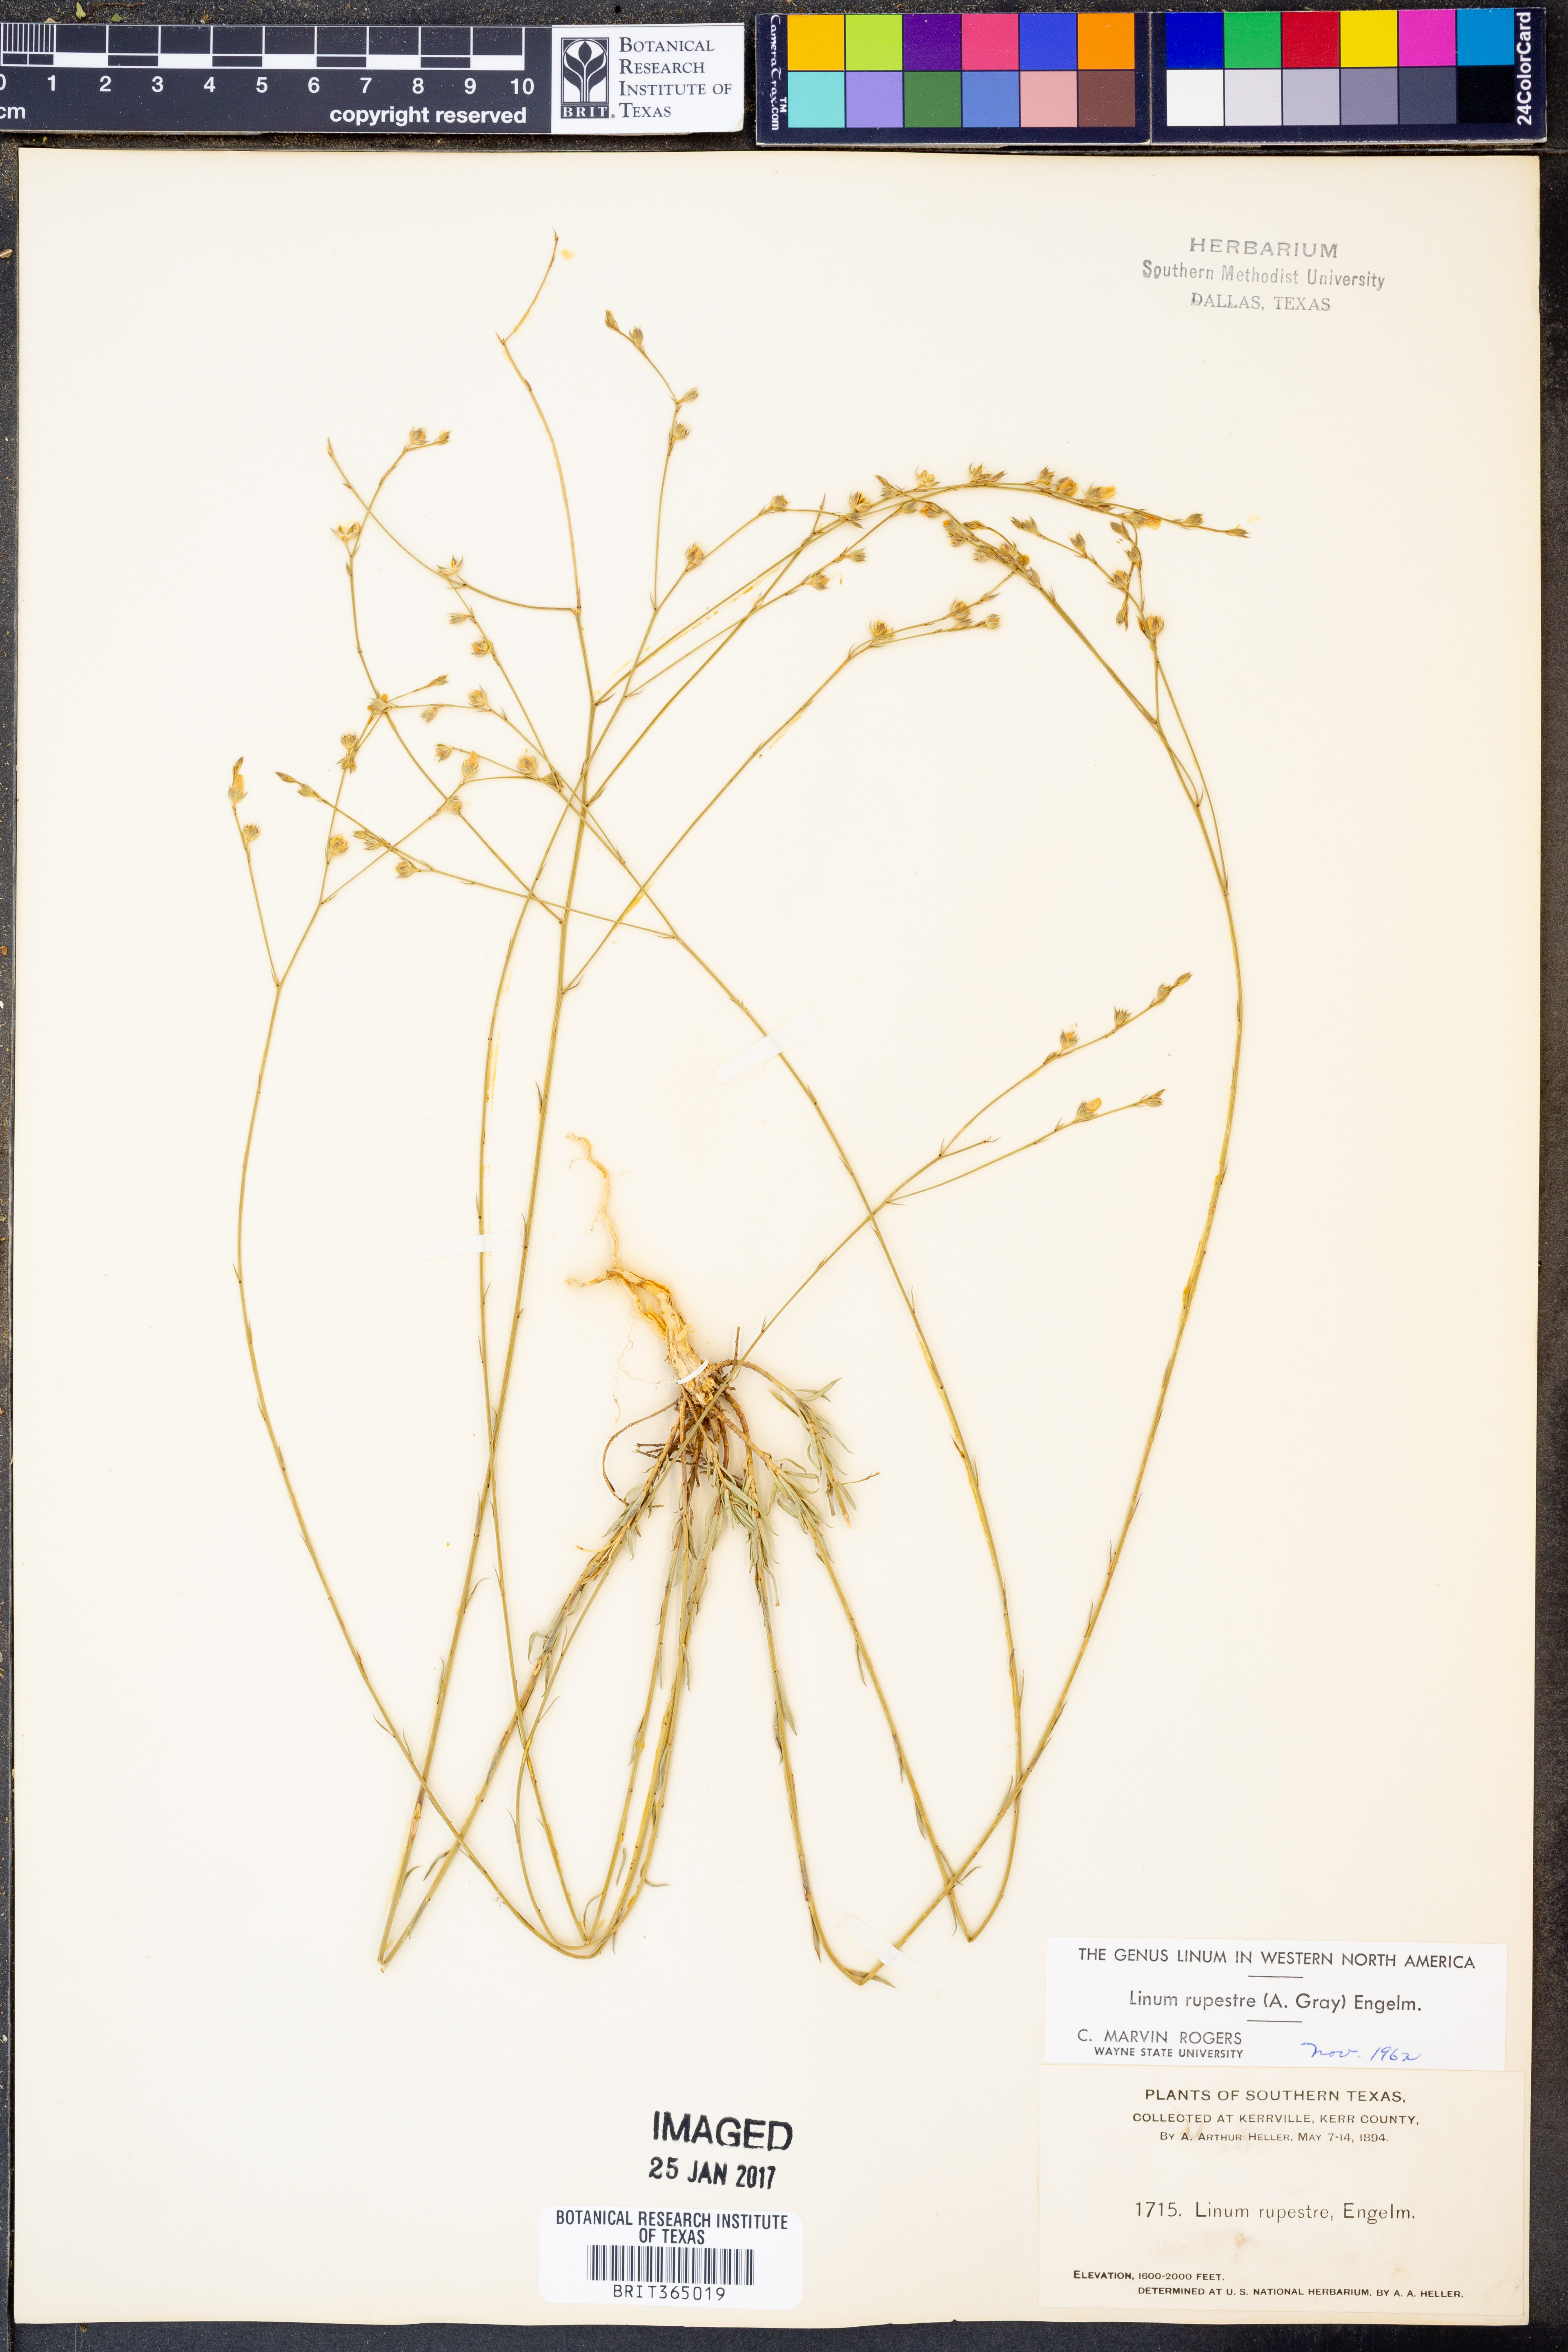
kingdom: Plantae
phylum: Tracheophyta
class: Magnoliopsida
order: Malpighiales
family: Linaceae
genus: Linum
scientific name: Linum rupestre
